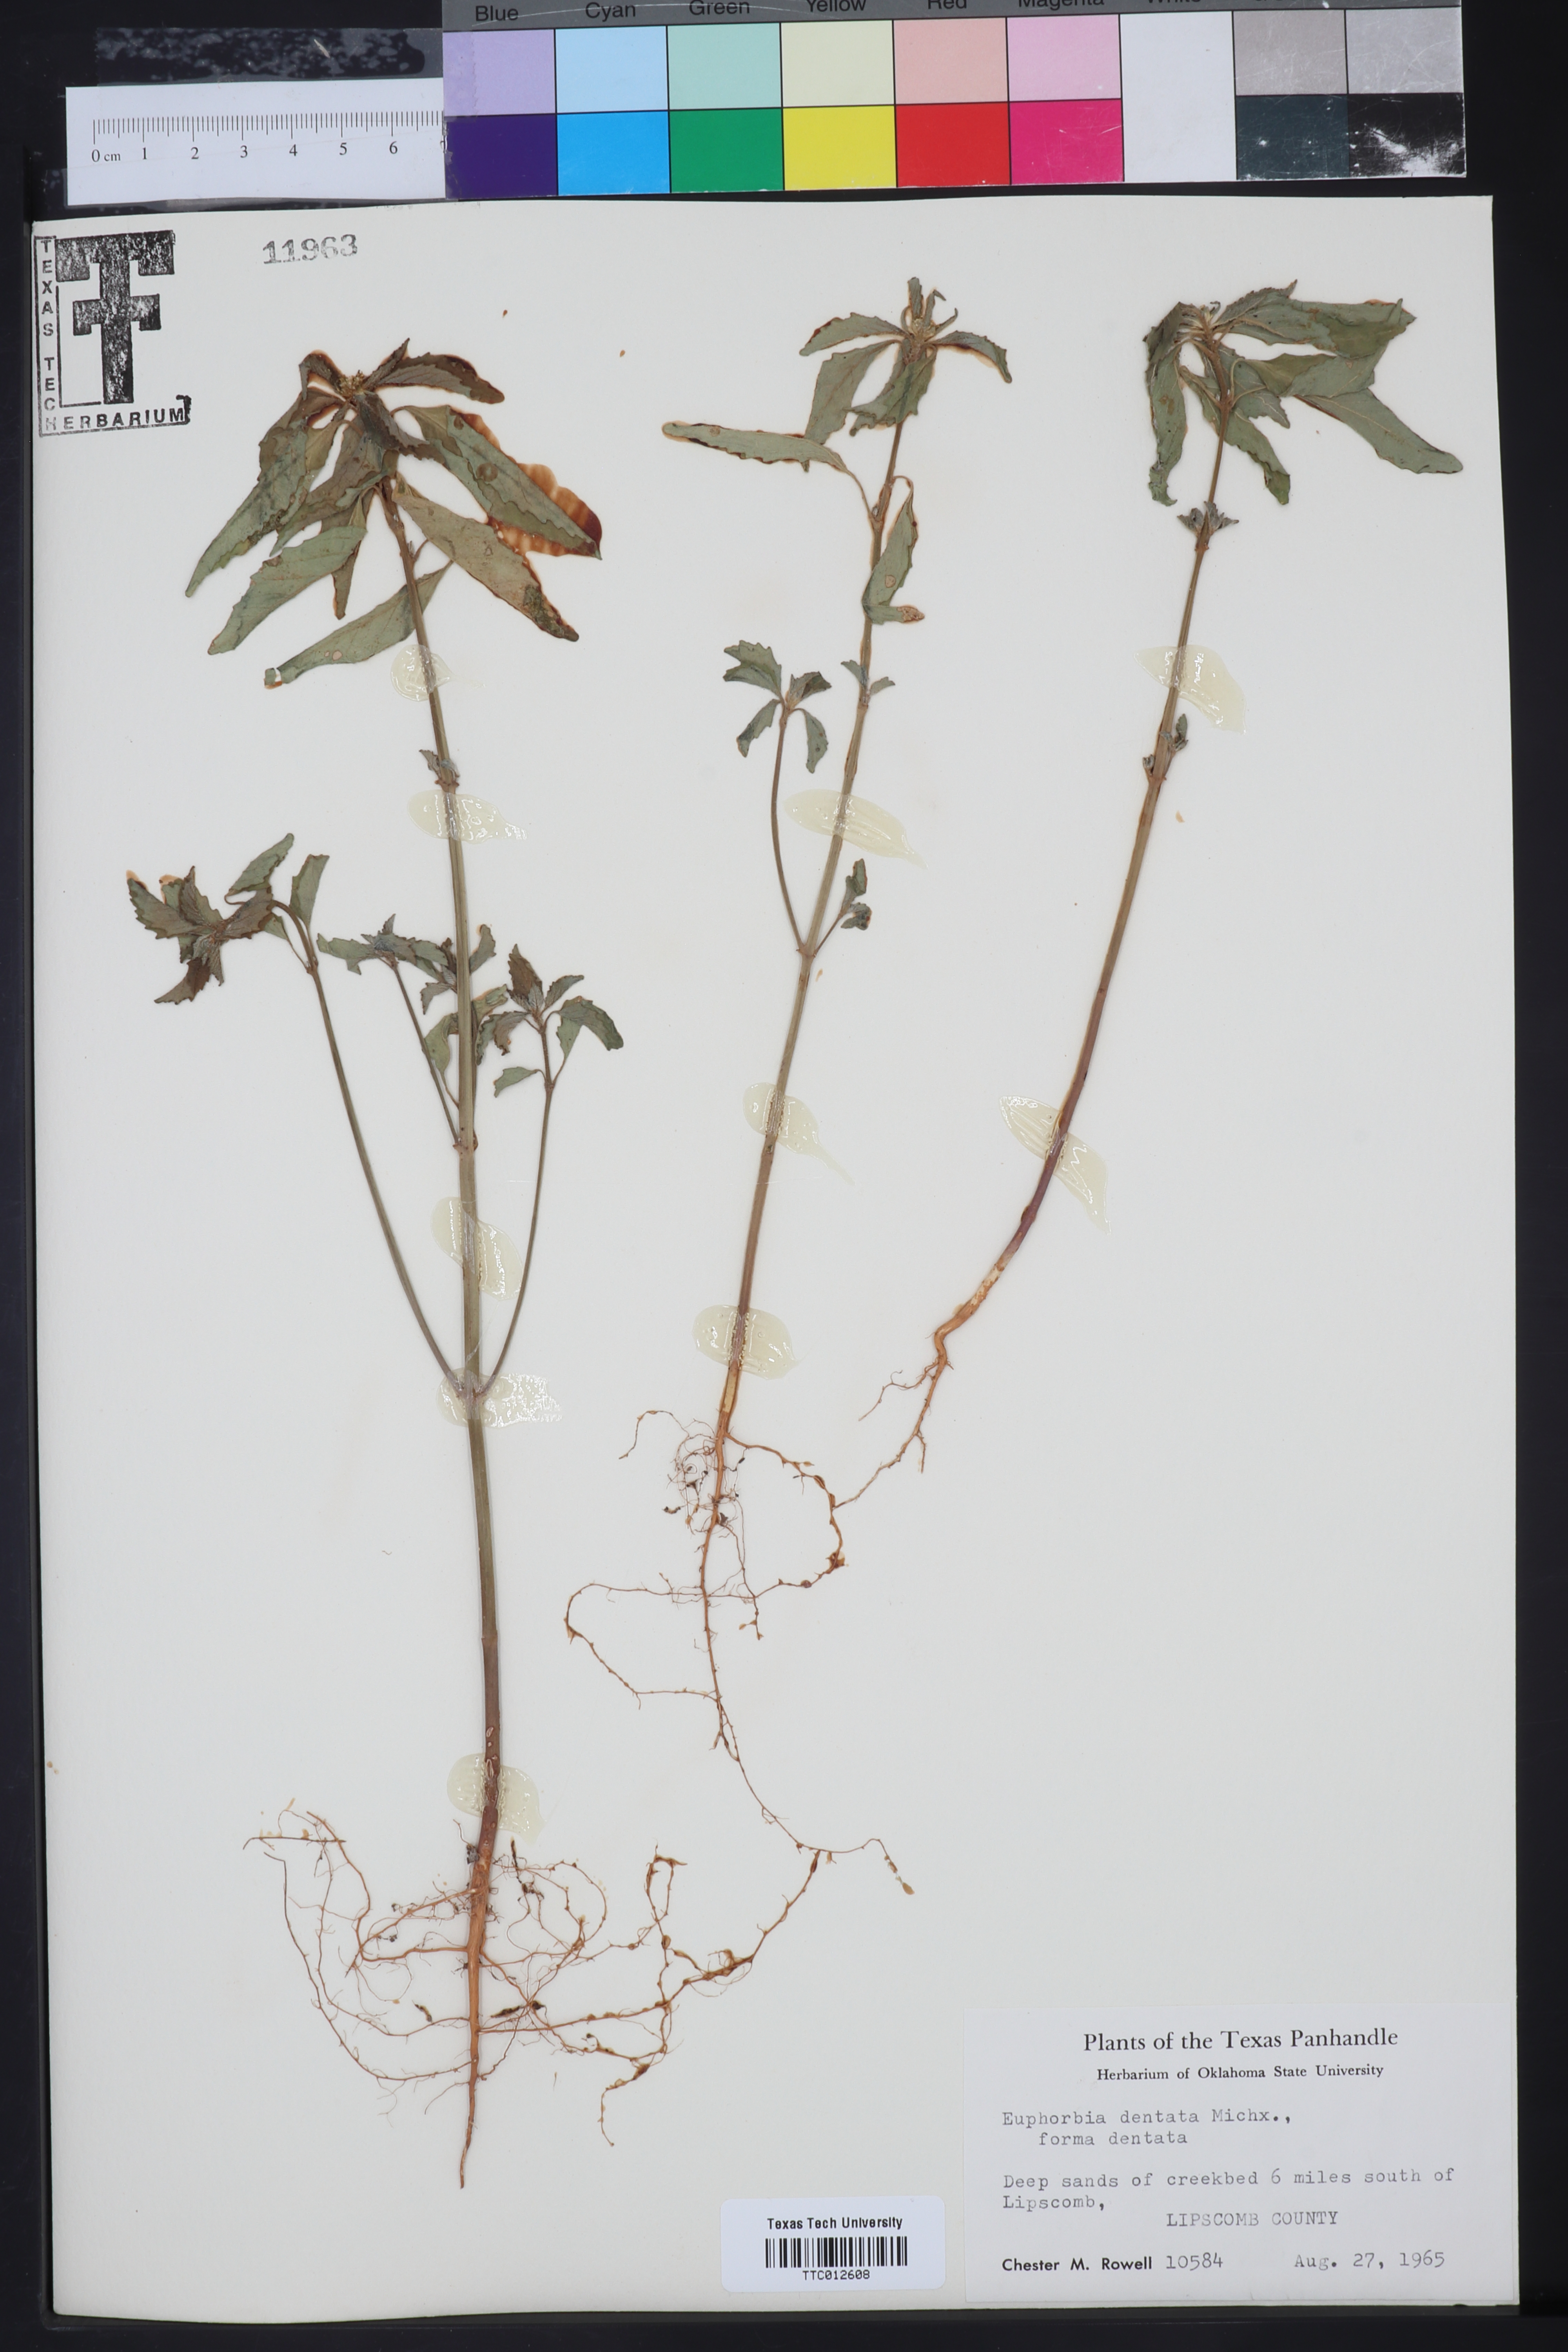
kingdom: Plantae
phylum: Tracheophyta
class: Magnoliopsida
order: Malpighiales
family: Euphorbiaceae
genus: Euphorbia
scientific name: Euphorbia dentata
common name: Dentate spurge
